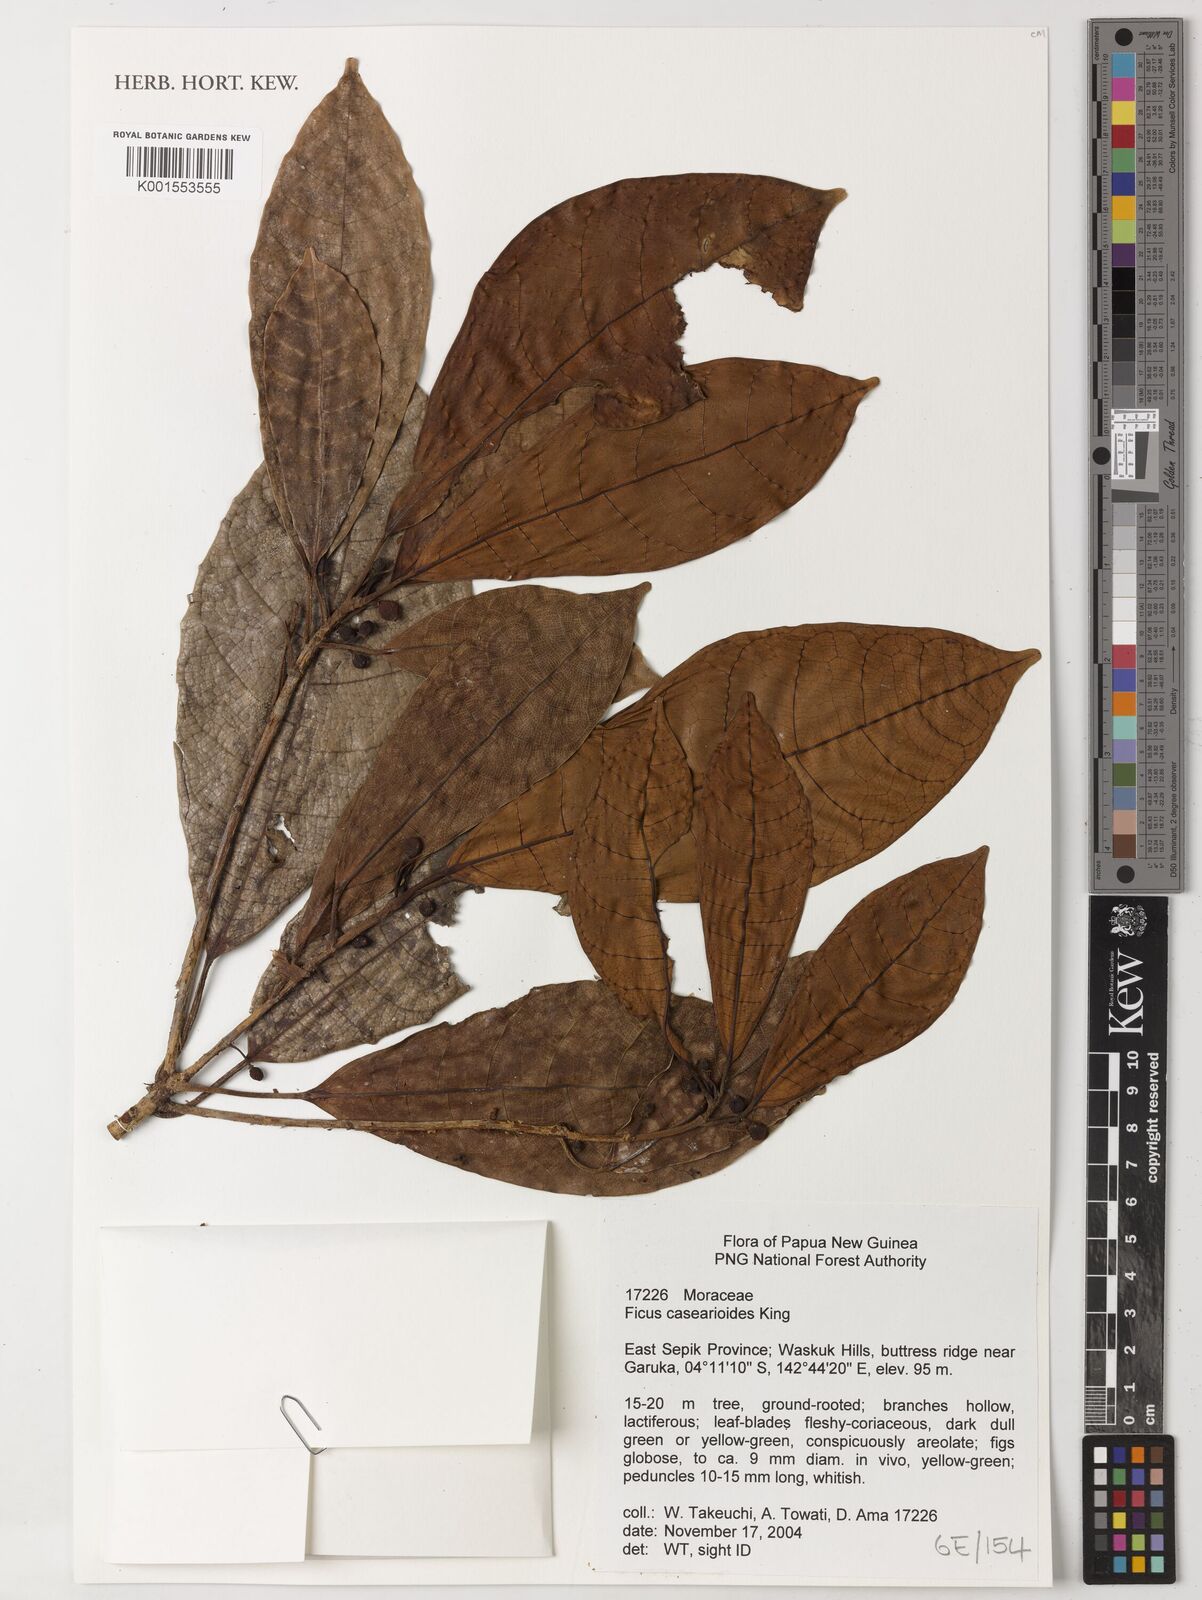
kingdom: Plantae
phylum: Tracheophyta
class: Magnoliopsida
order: Rosales
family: Moraceae
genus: Ficus
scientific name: Ficus casearioides
